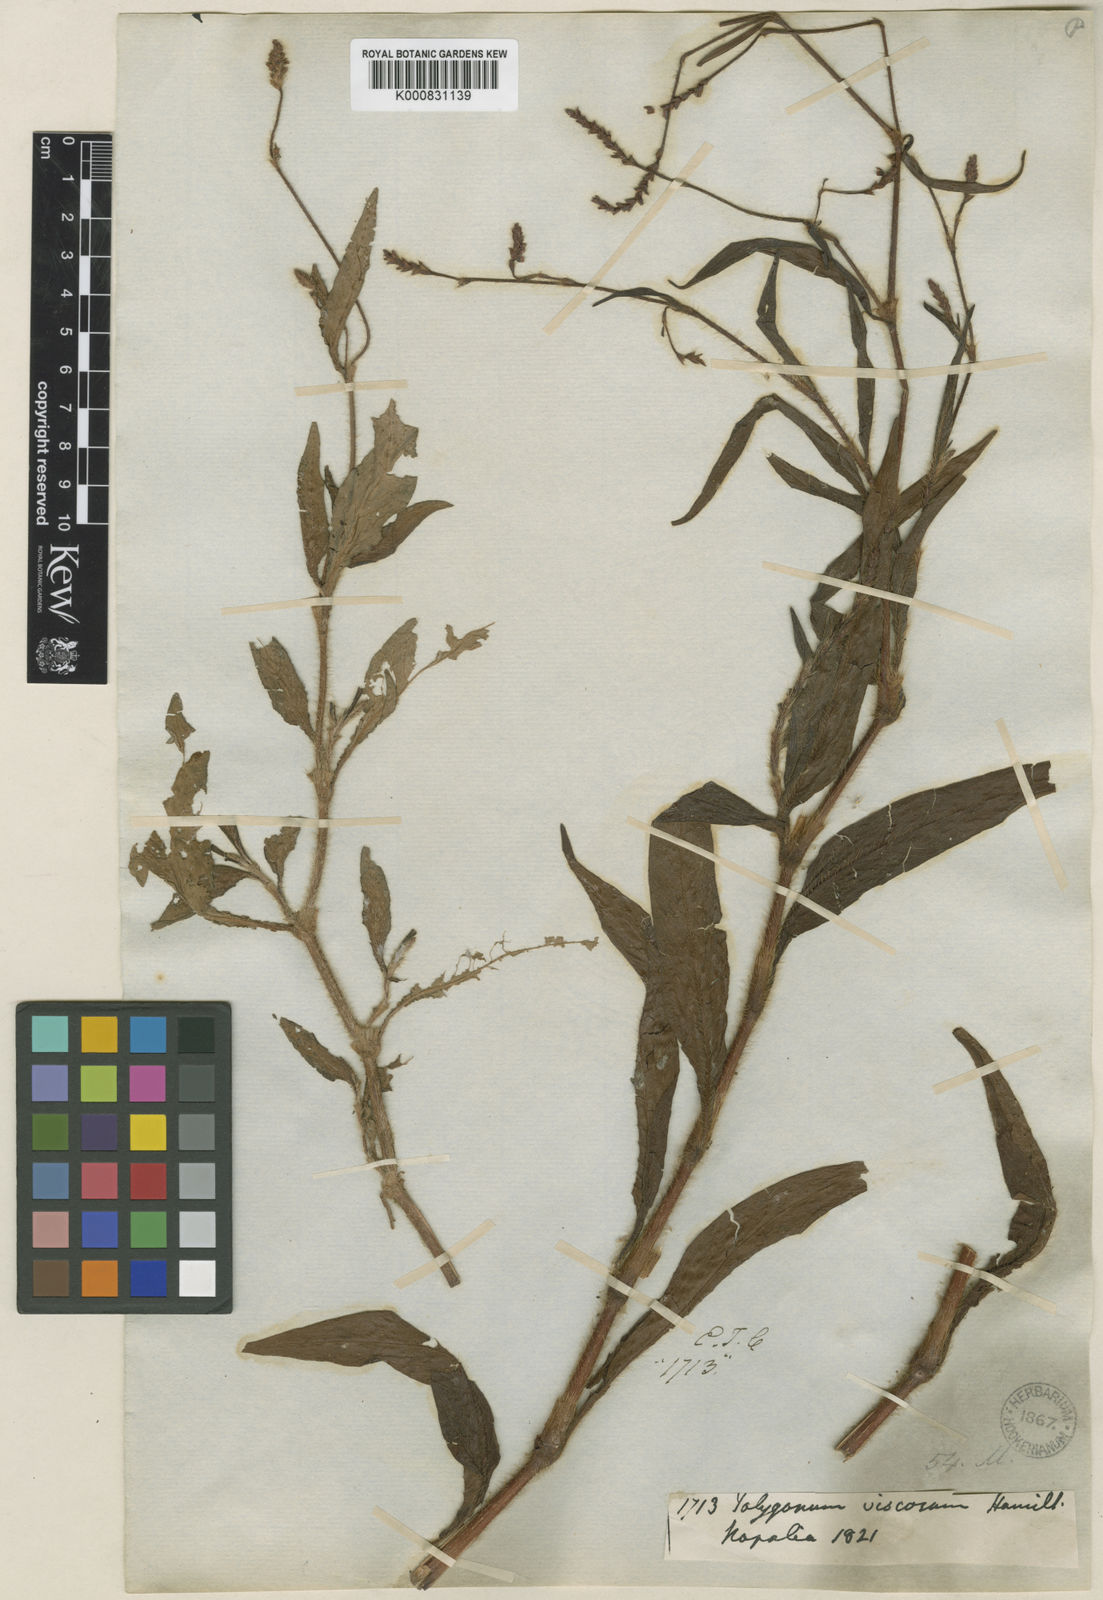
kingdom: Plantae
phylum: Tracheophyta
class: Magnoliopsida
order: Caryophyllales
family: Polygonaceae
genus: Persicaria
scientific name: Persicaria viscosa
